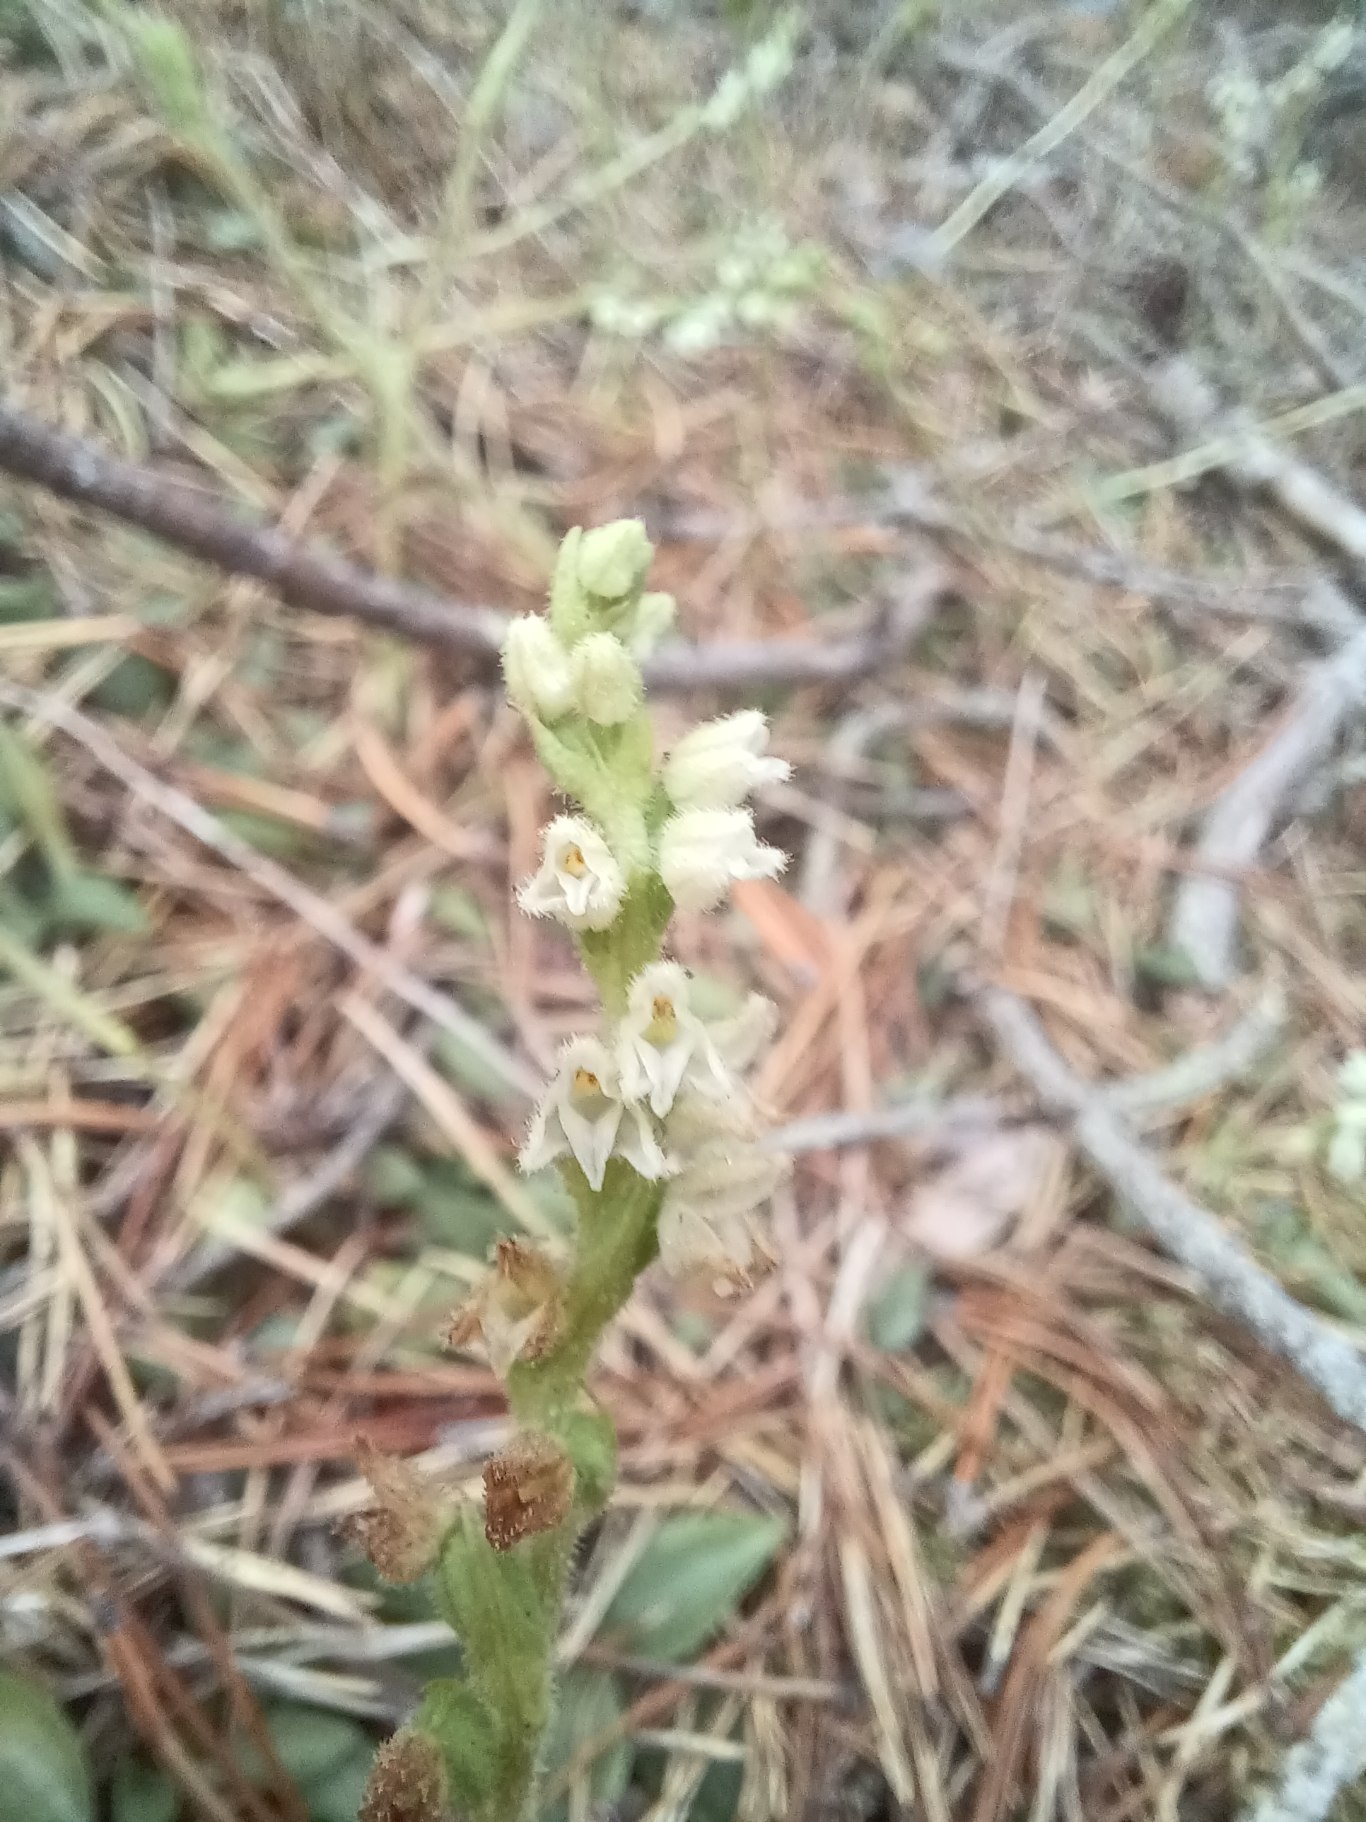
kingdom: Plantae
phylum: Tracheophyta
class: Liliopsida
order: Asparagales
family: Orchidaceae
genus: Goodyera
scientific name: Goodyera repens
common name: Knærod
